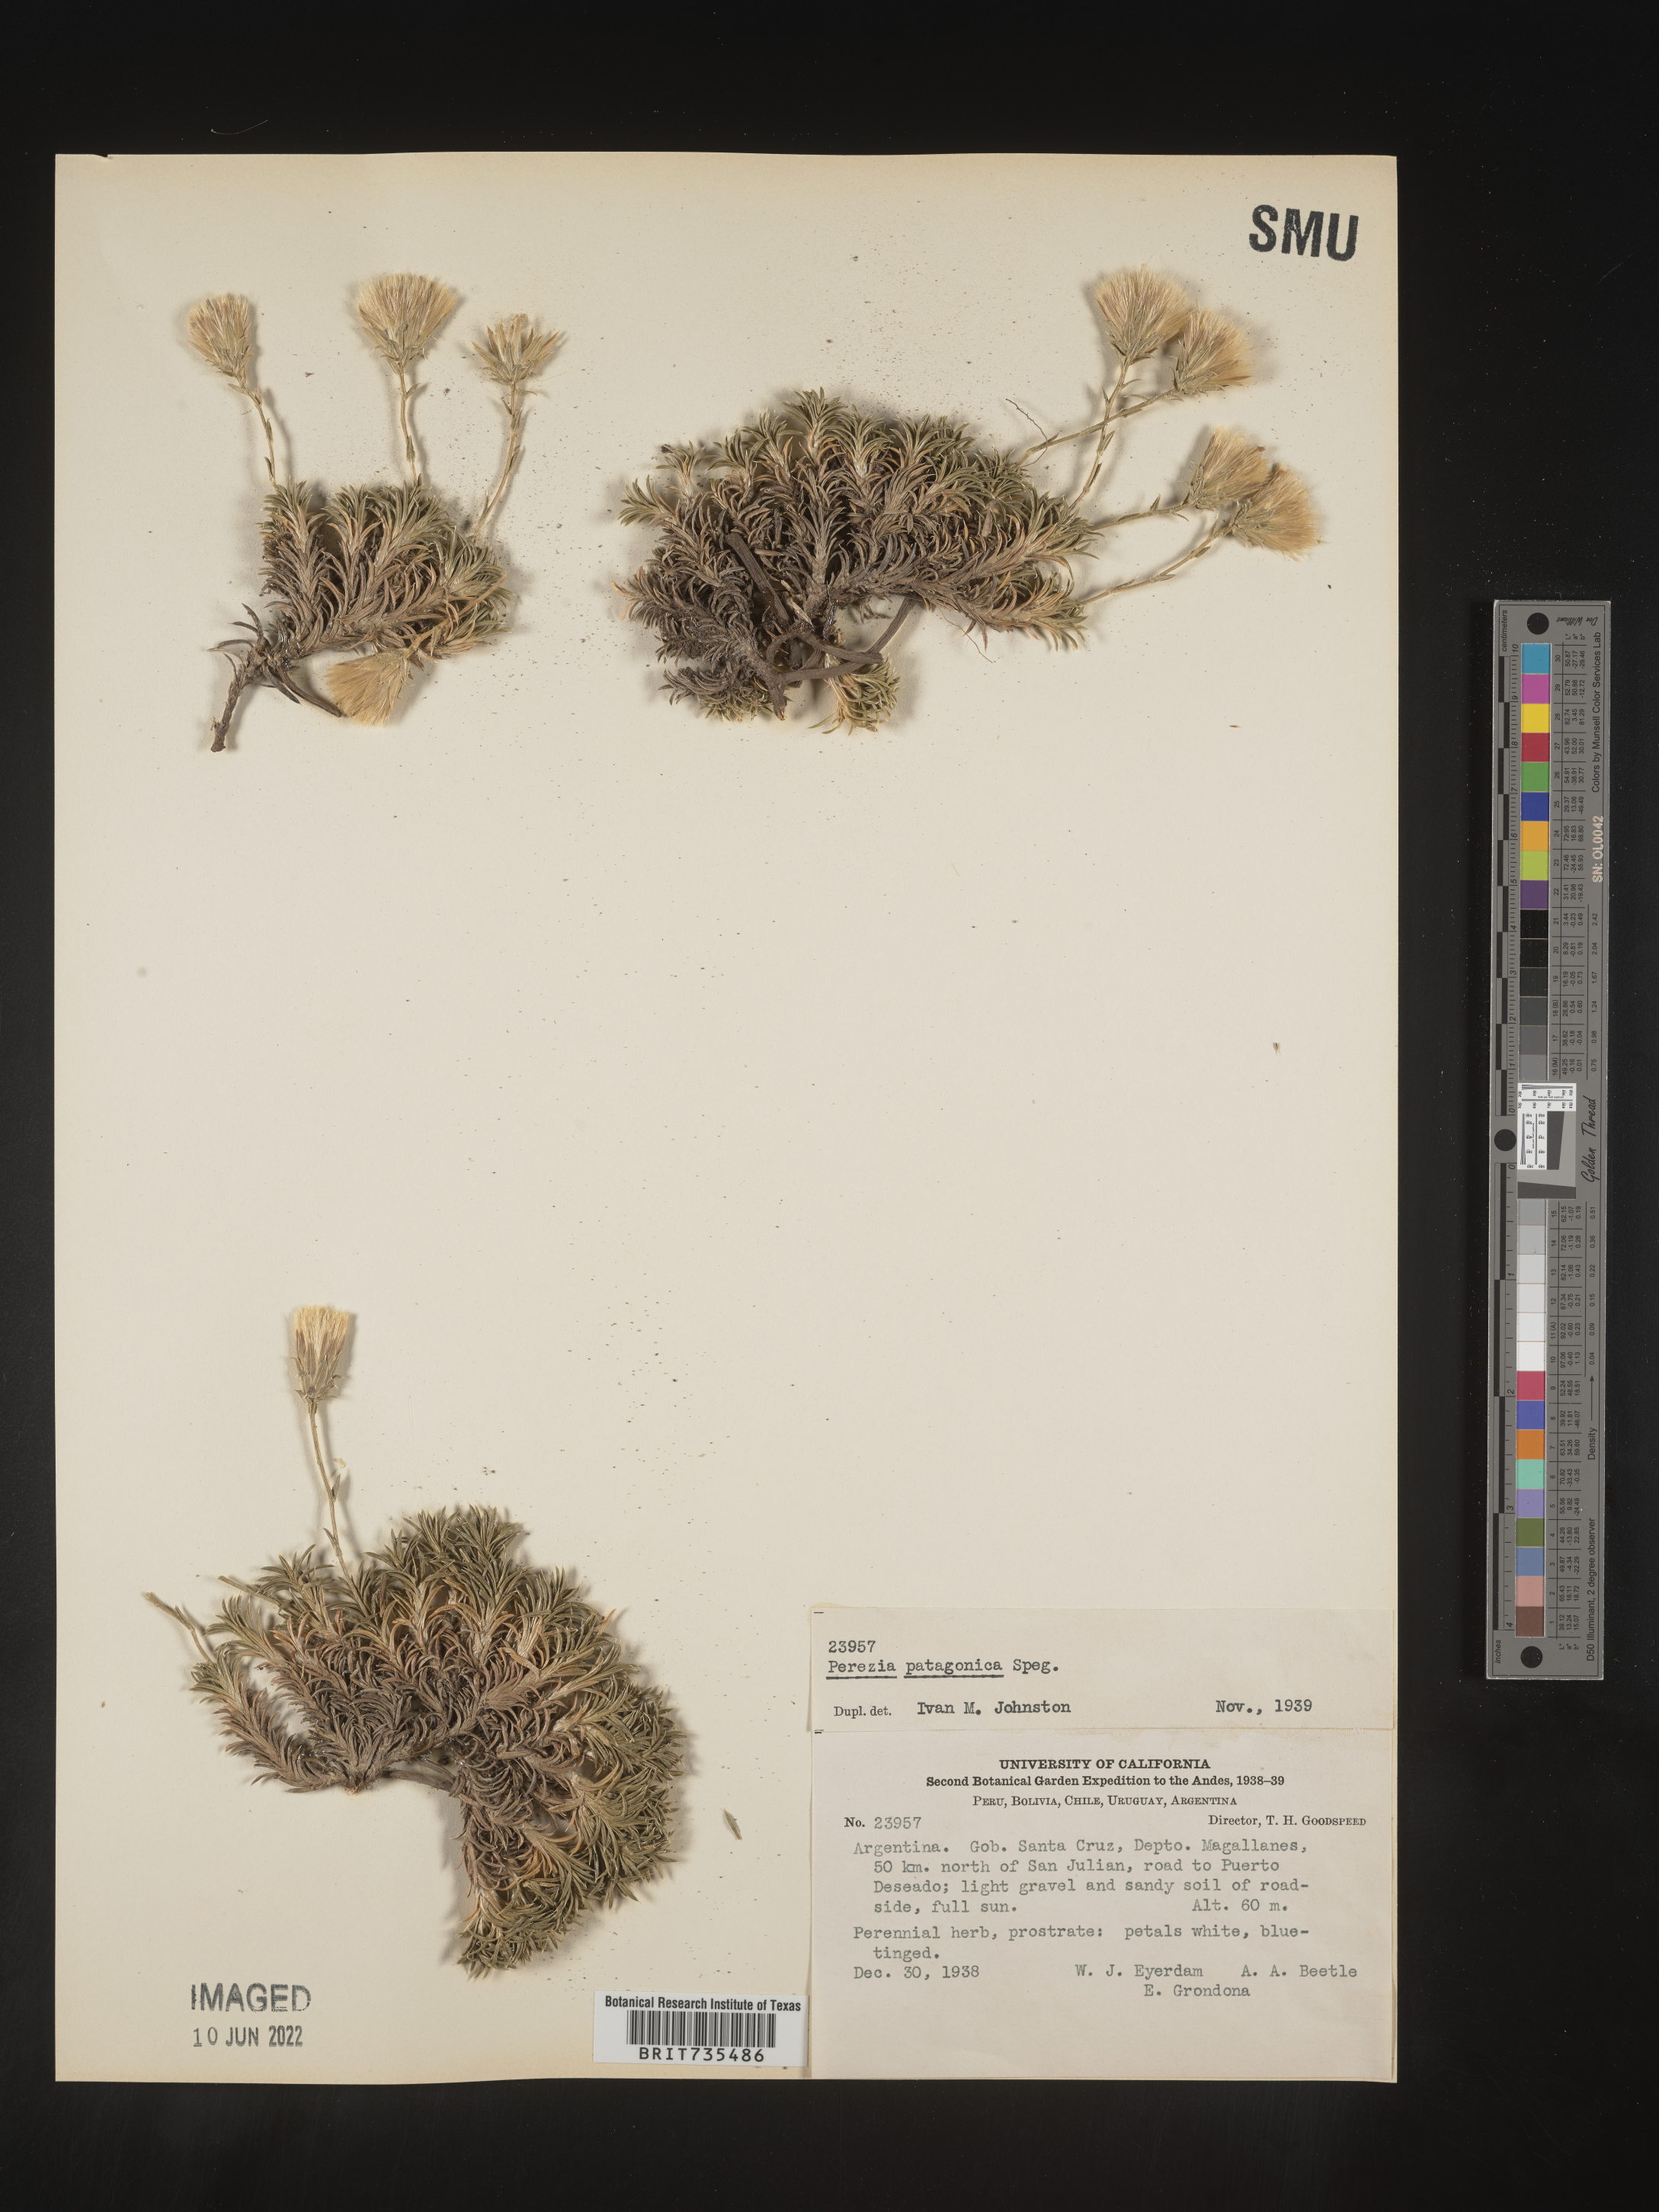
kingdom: Plantae
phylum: Tracheophyta
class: Magnoliopsida
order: Asterales
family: Asteraceae
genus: Perezia
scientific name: Perezia
